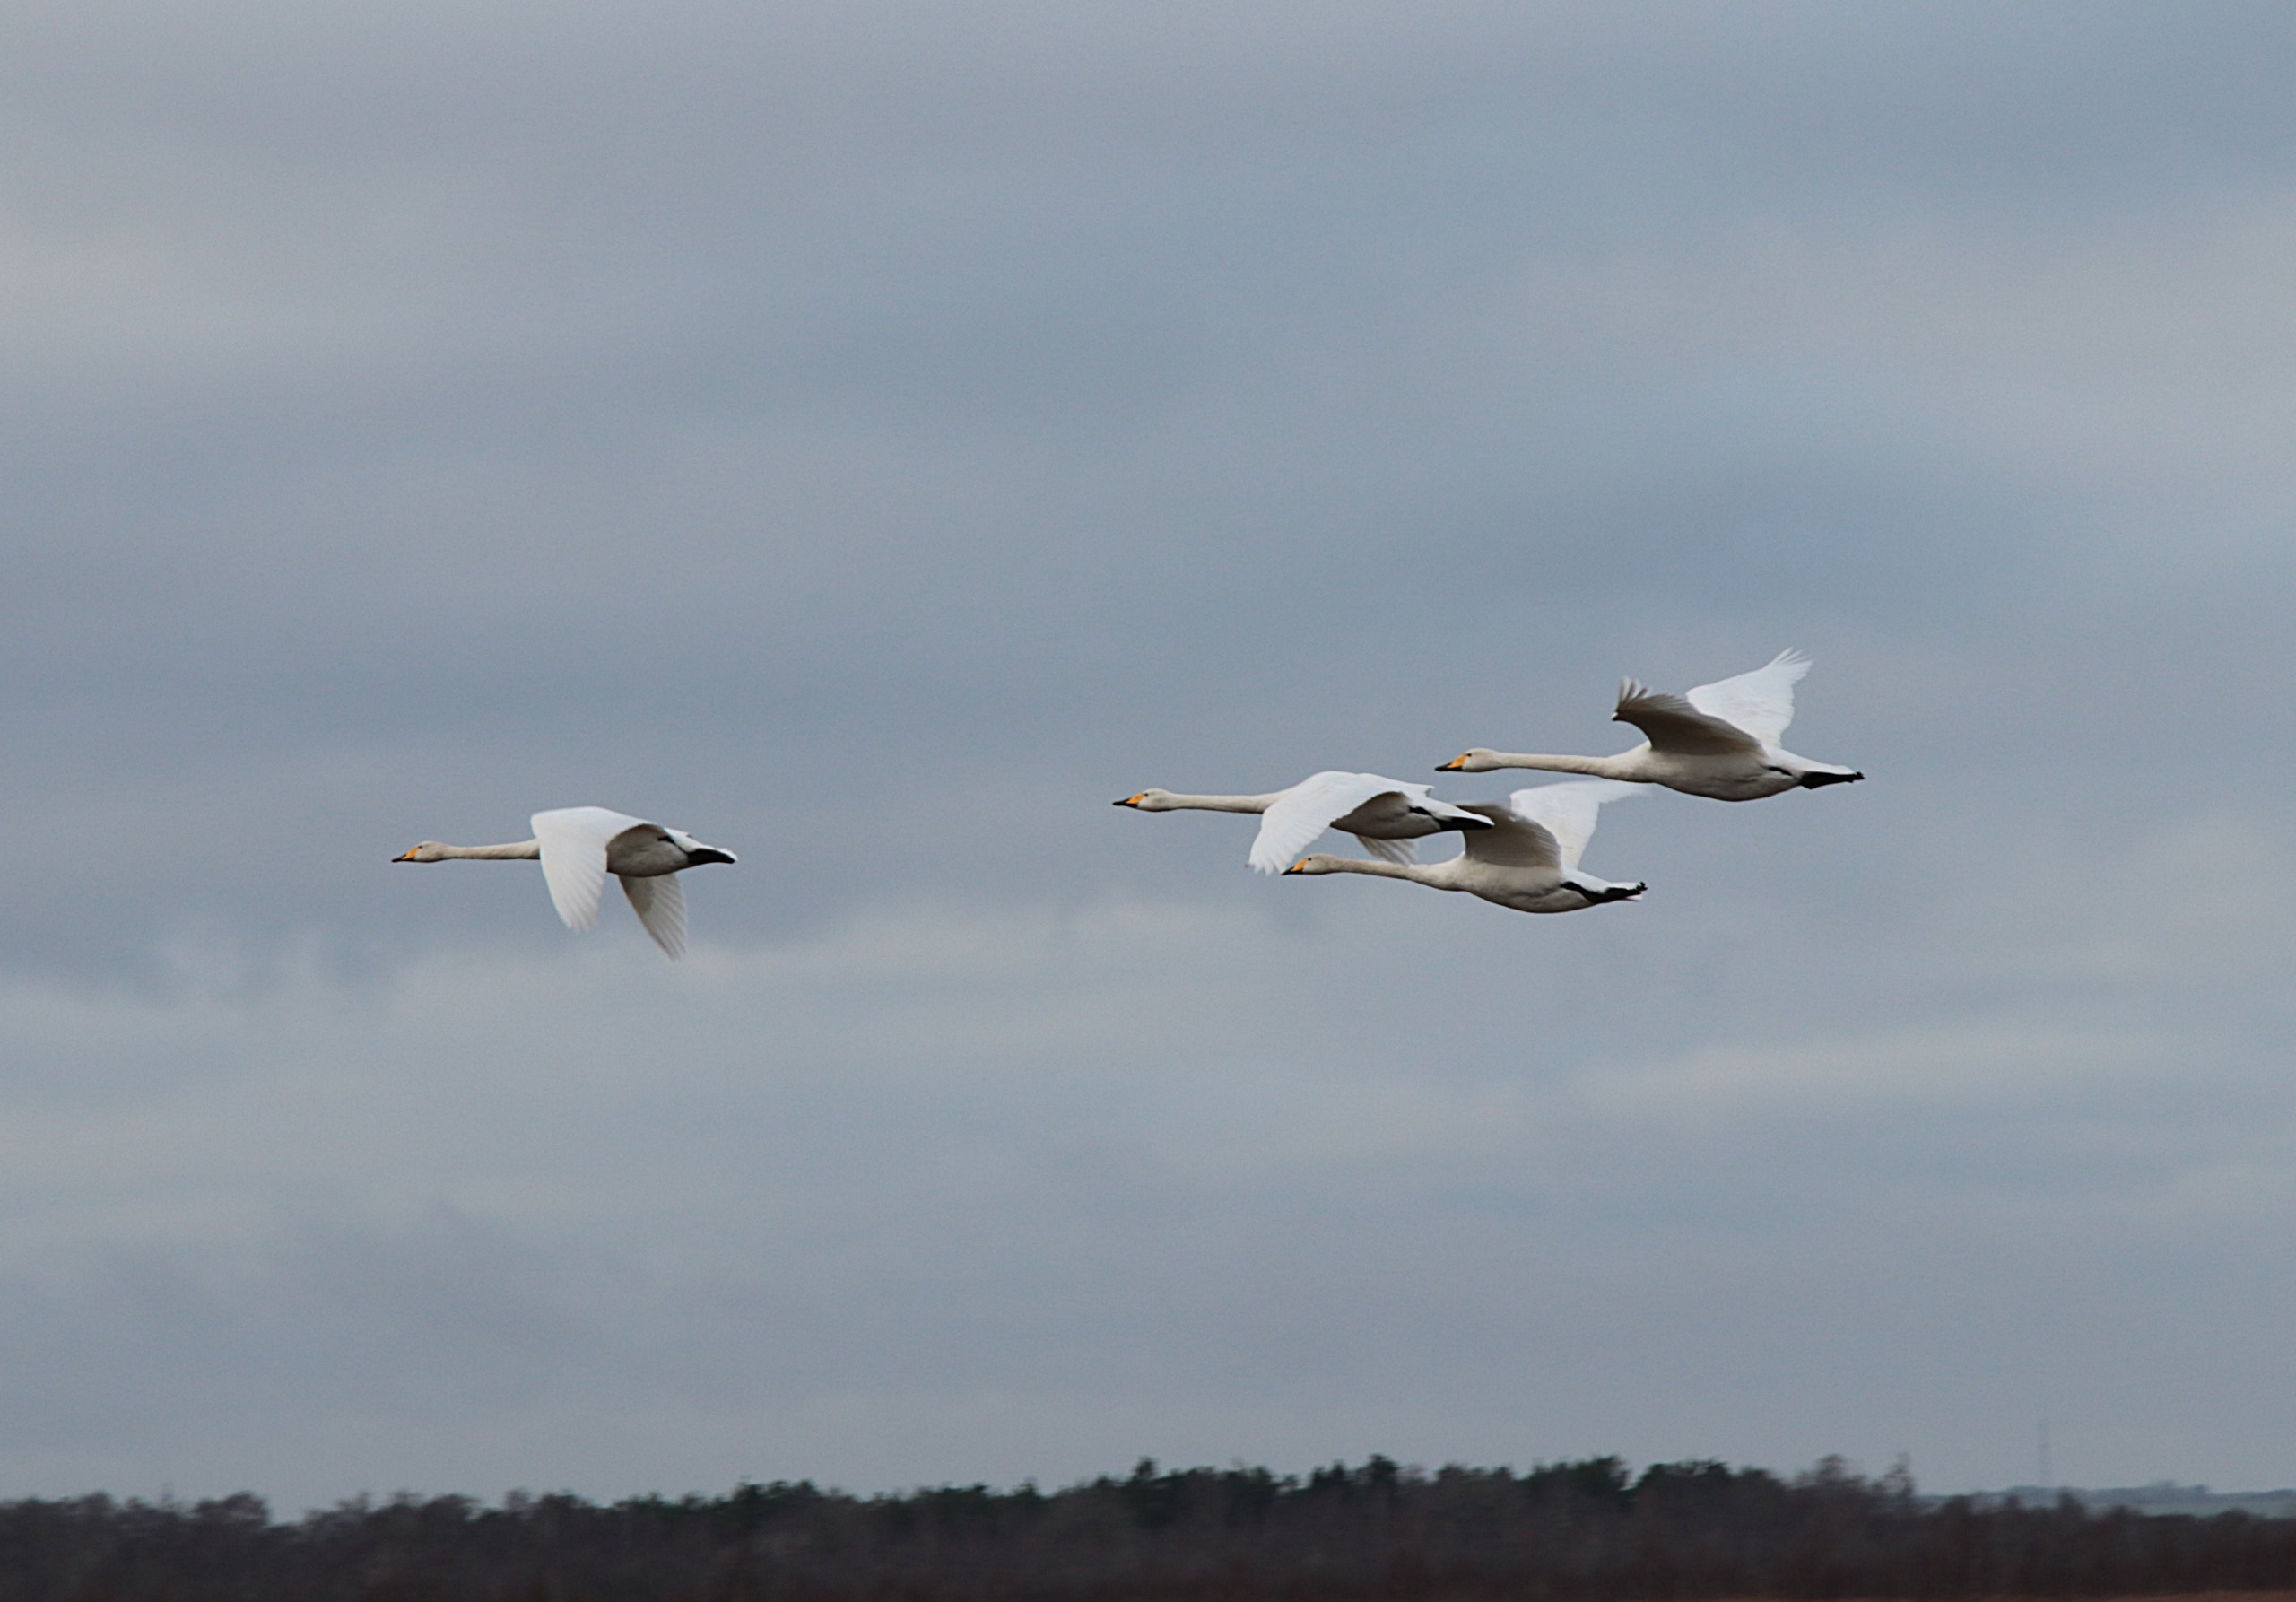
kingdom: Animalia
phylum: Chordata
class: Aves
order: Anseriformes
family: Anatidae
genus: Cygnus
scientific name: Cygnus cygnus
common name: Sangsvane
